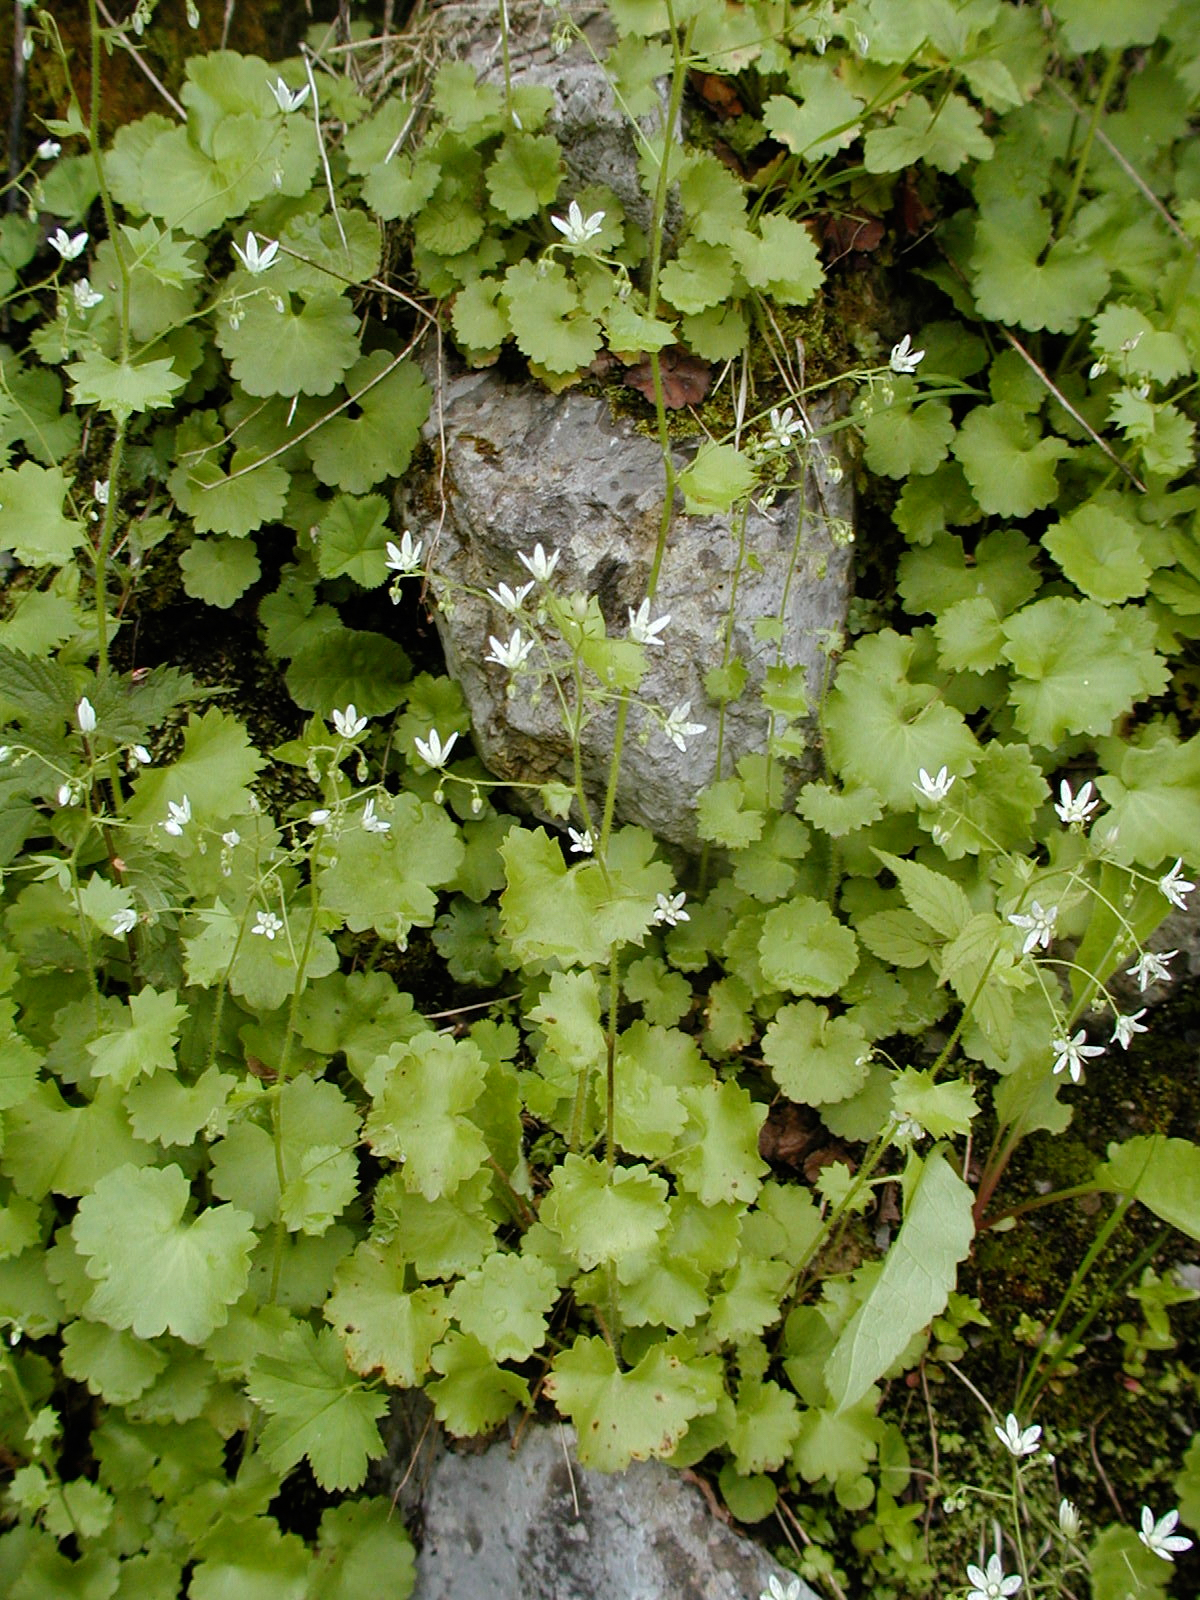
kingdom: Plantae
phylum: Tracheophyta
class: Magnoliopsida
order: Saxifragales
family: Saxifragaceae
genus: Saxifraga
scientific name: Saxifraga rotundifolia
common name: Round-leaved saxifrage
